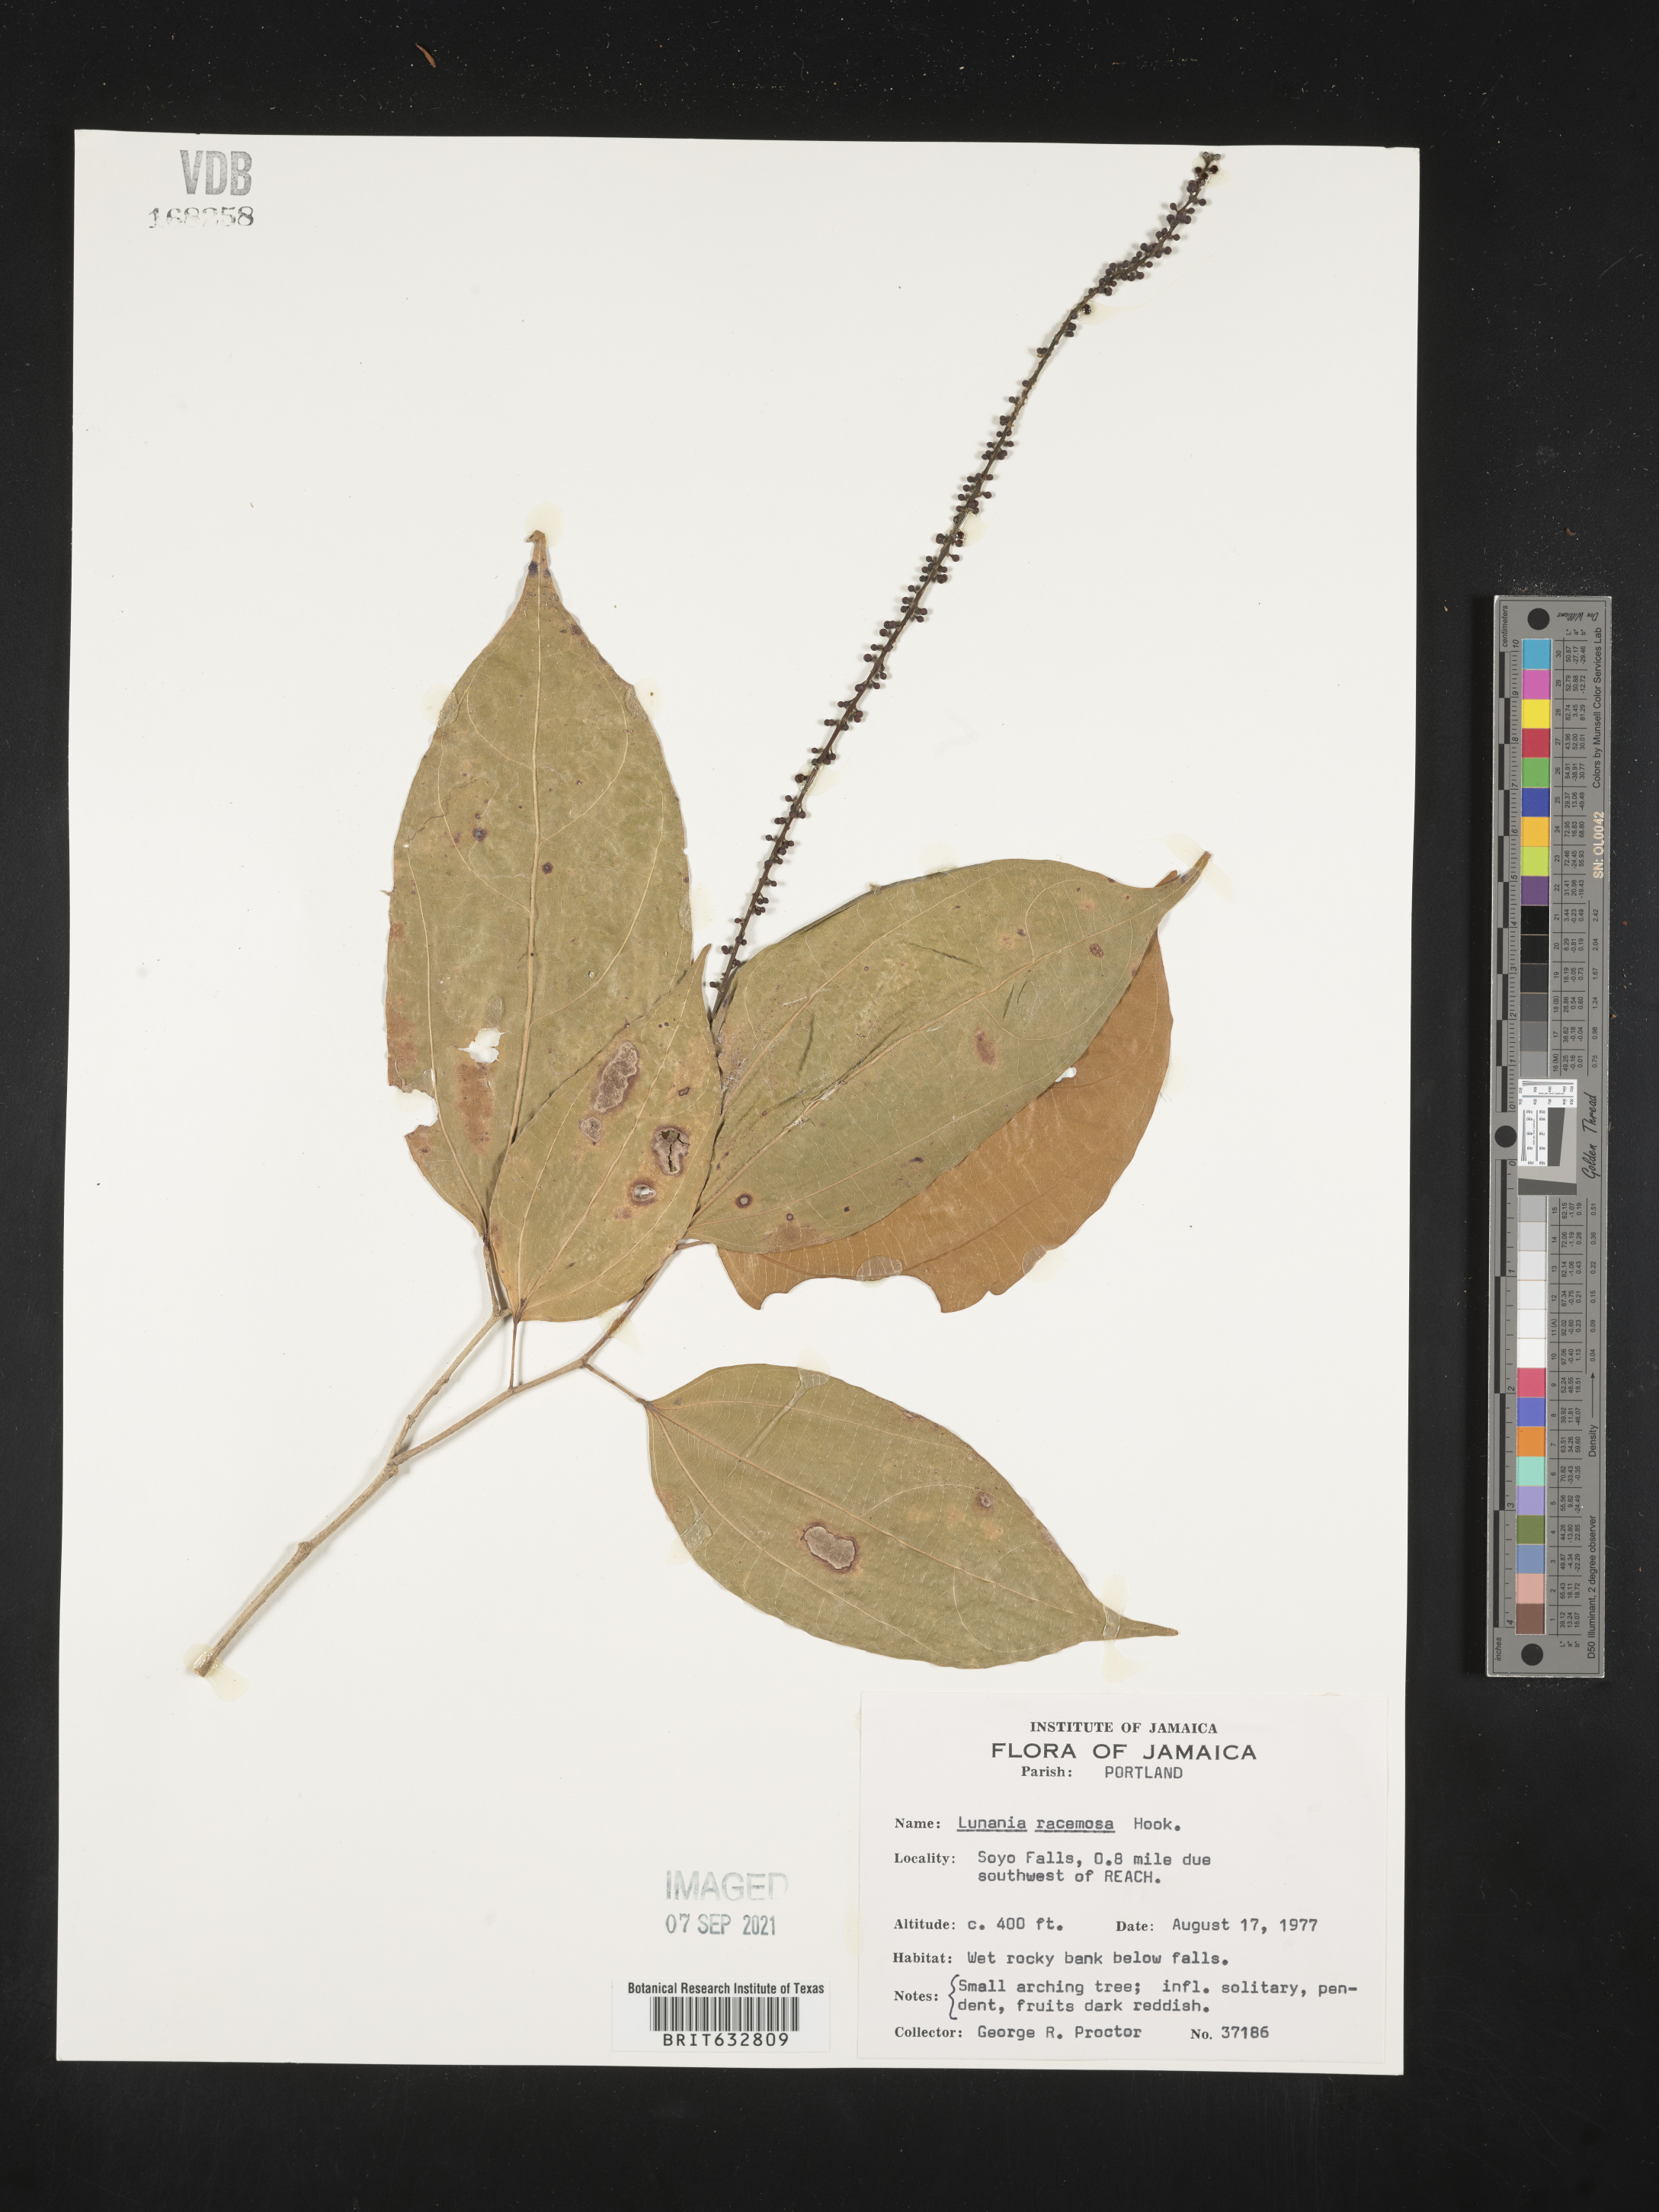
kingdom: Plantae
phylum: Tracheophyta
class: Magnoliopsida
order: Malpighiales
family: Salicaceae
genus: Lunania
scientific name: Lunania
